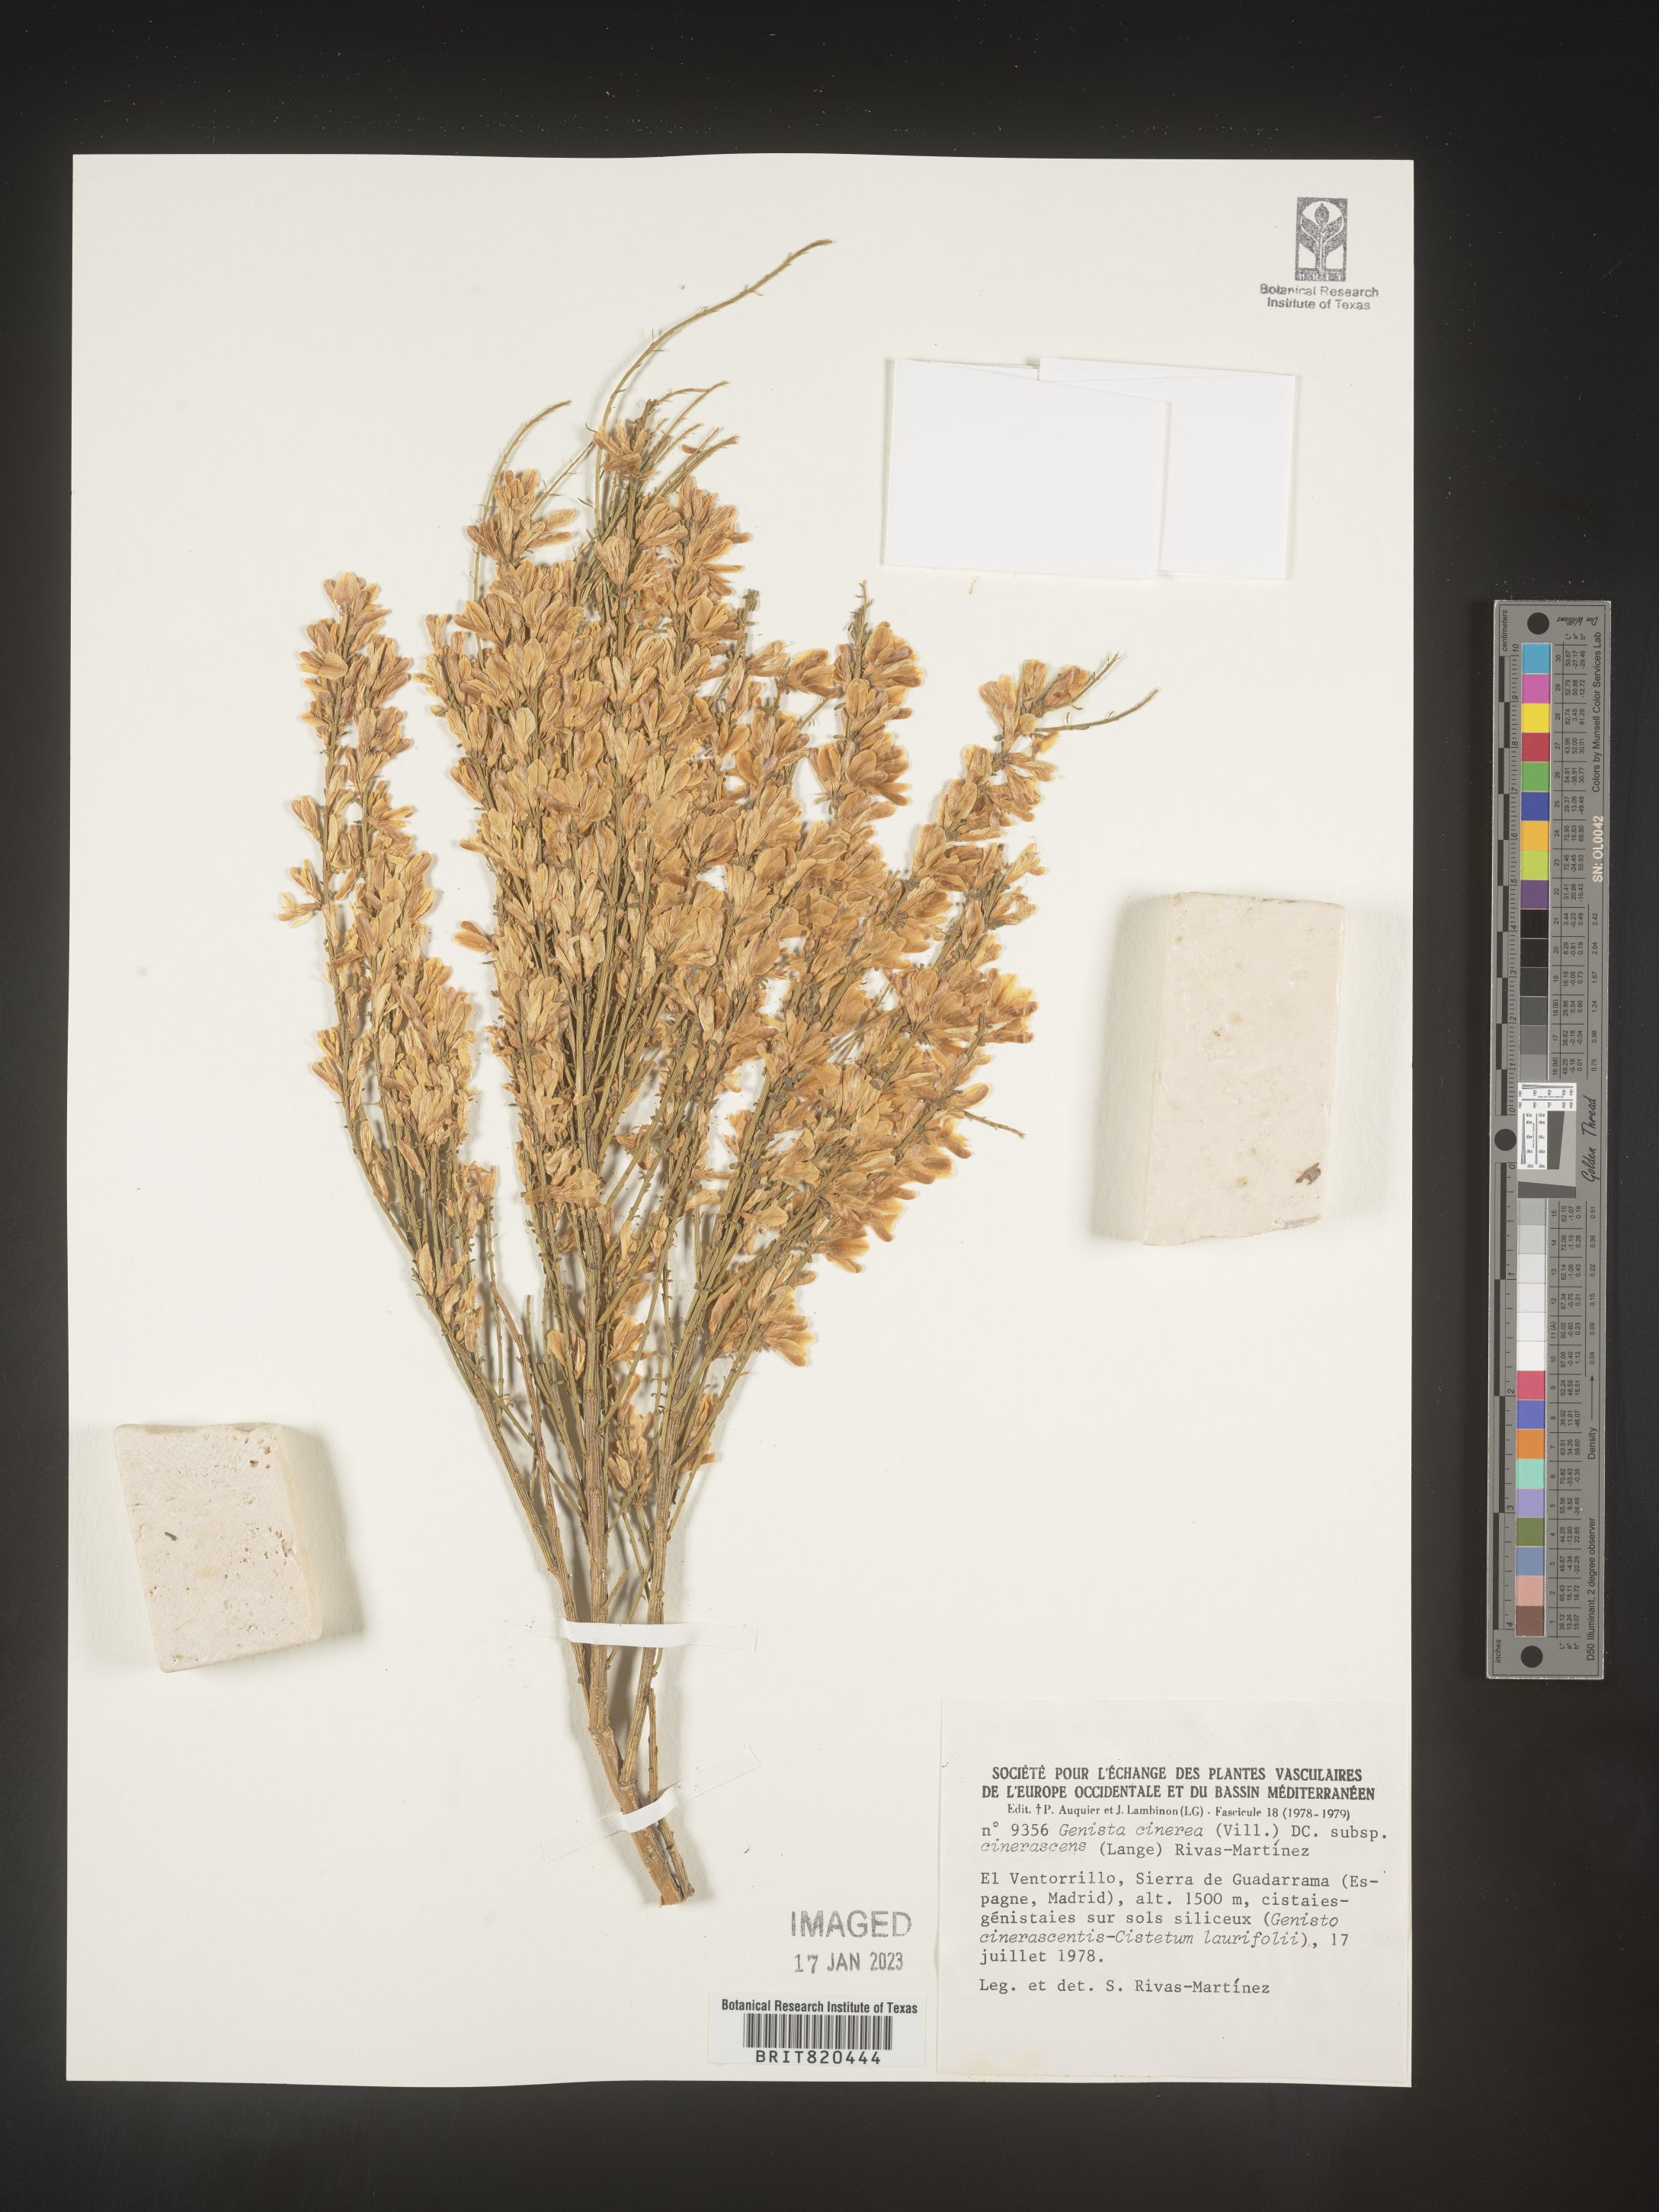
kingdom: Plantae
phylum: Tracheophyta
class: Magnoliopsida
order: Fabales
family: Fabaceae
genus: Genista
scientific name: Genista
